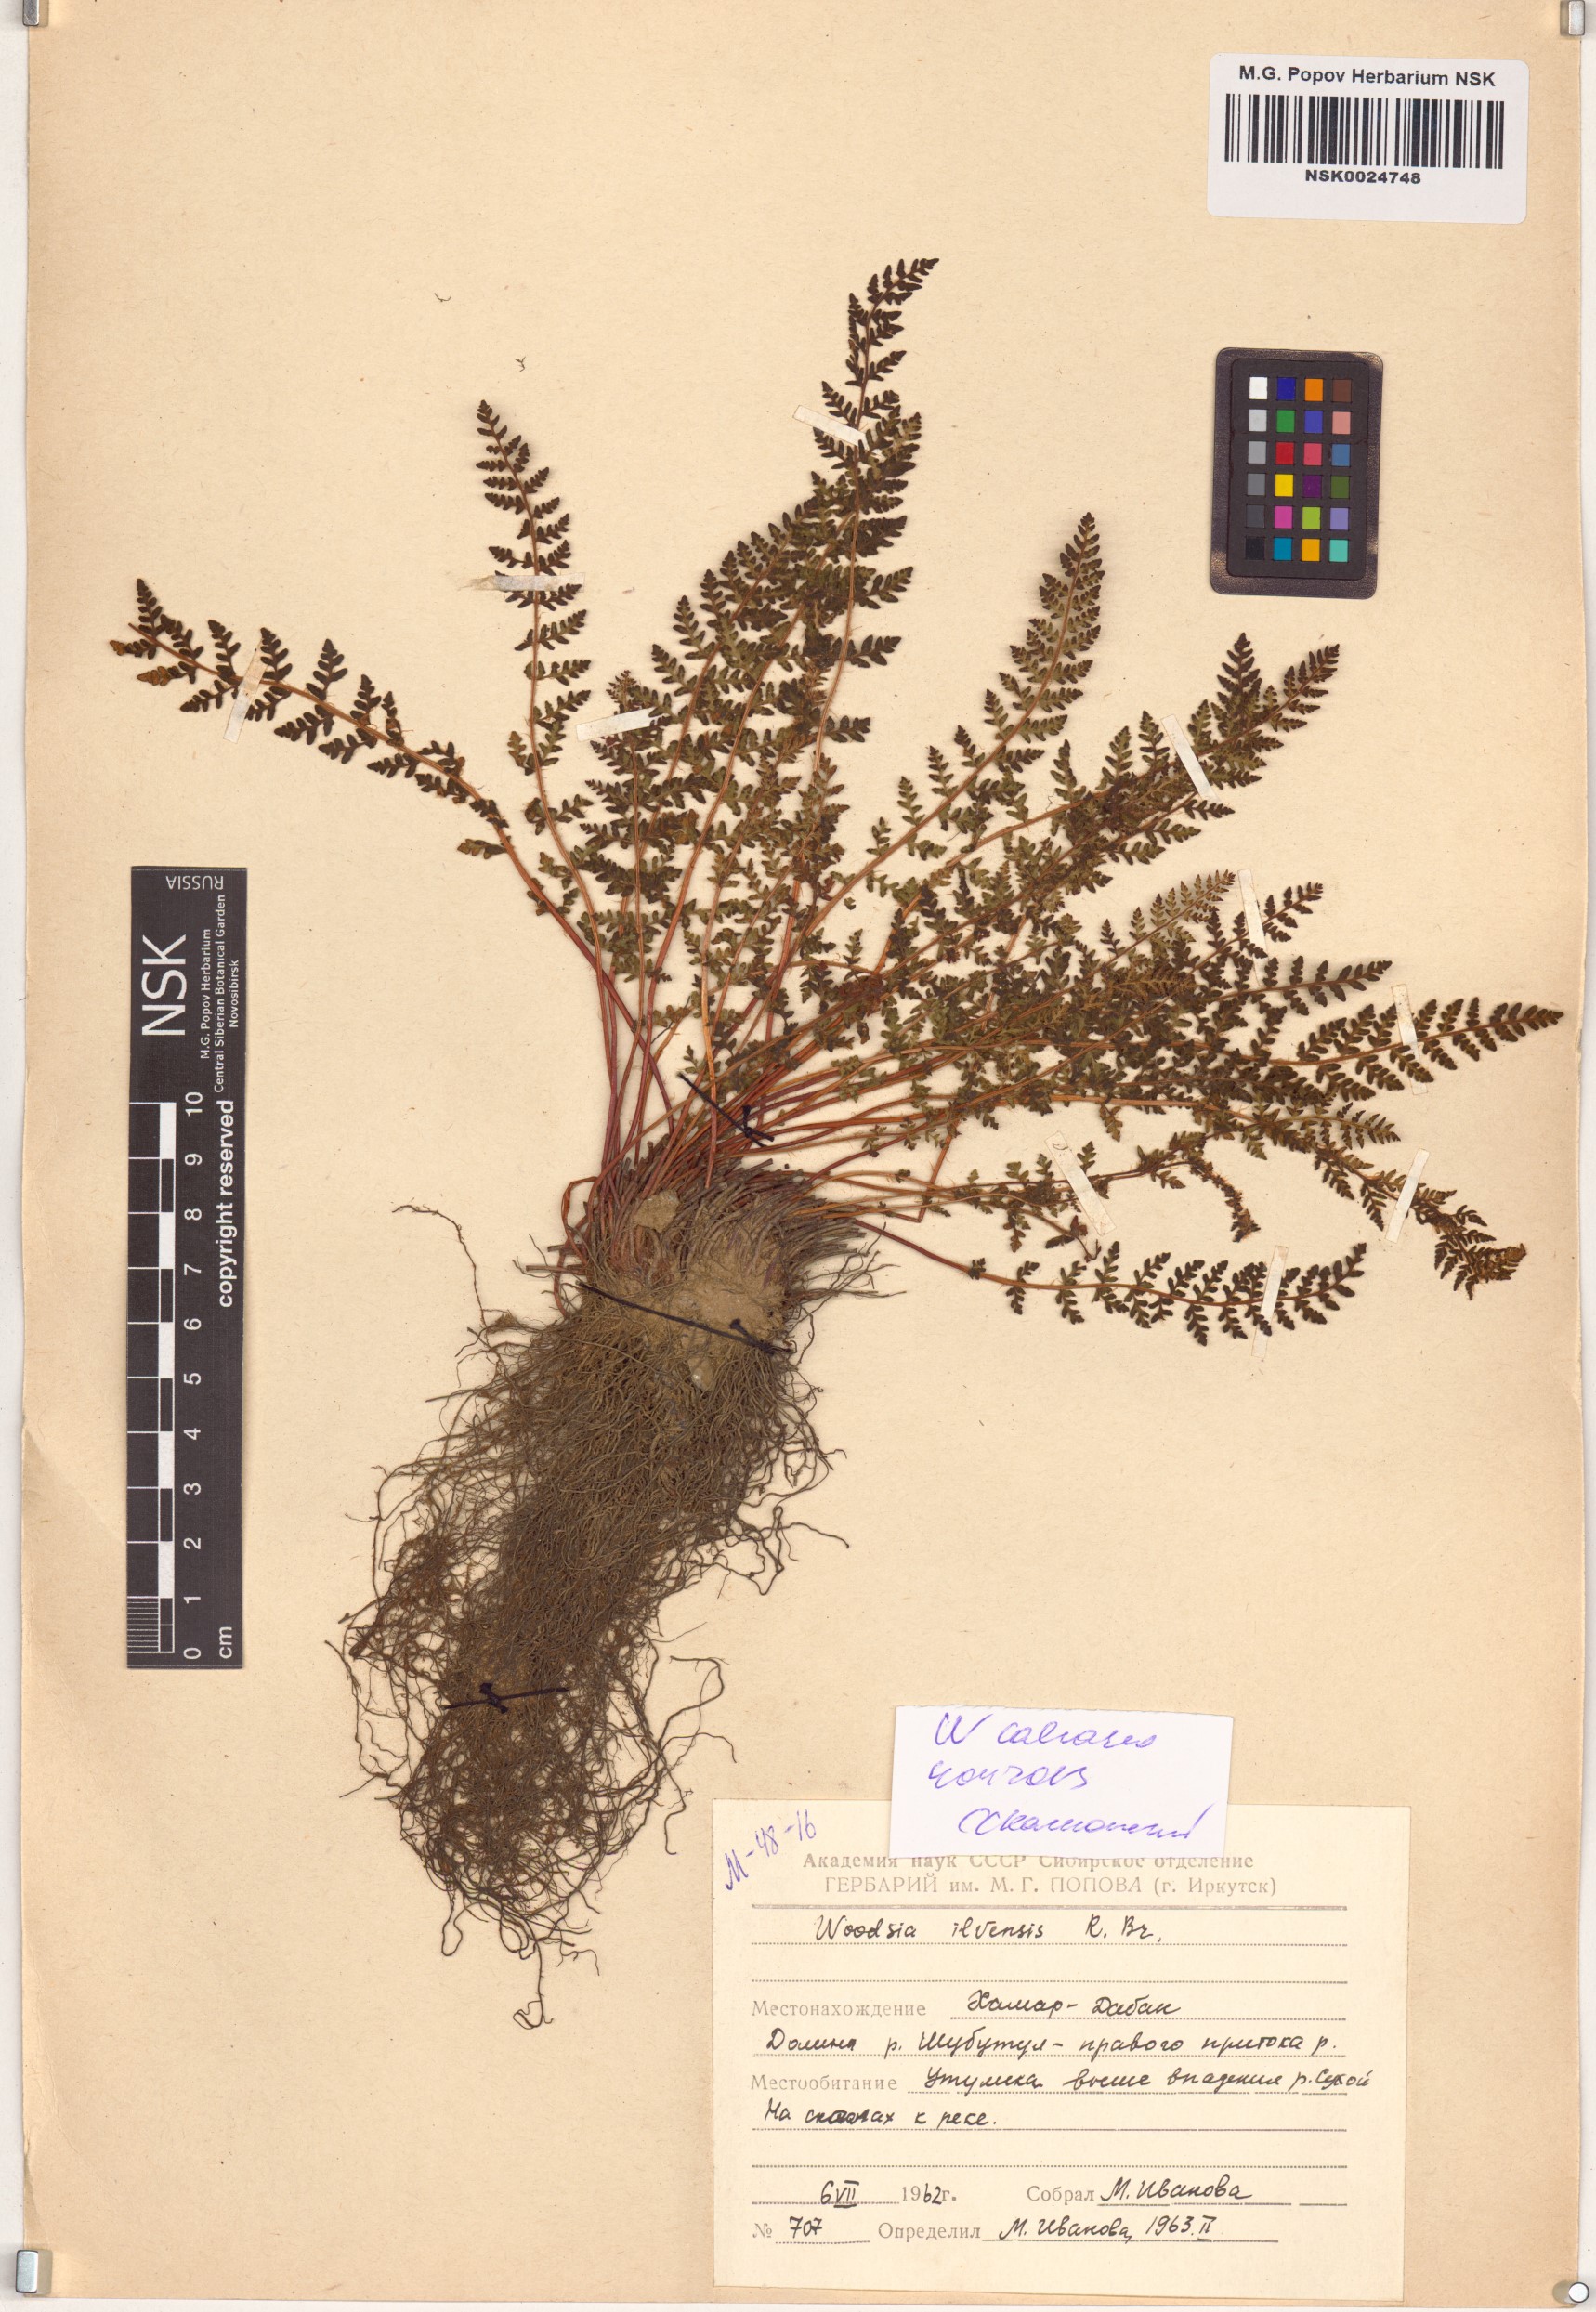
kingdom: Plantae
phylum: Tracheophyta
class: Polypodiopsida
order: Polypodiales
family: Woodsiaceae
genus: Woodsia
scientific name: Woodsia calcarea
